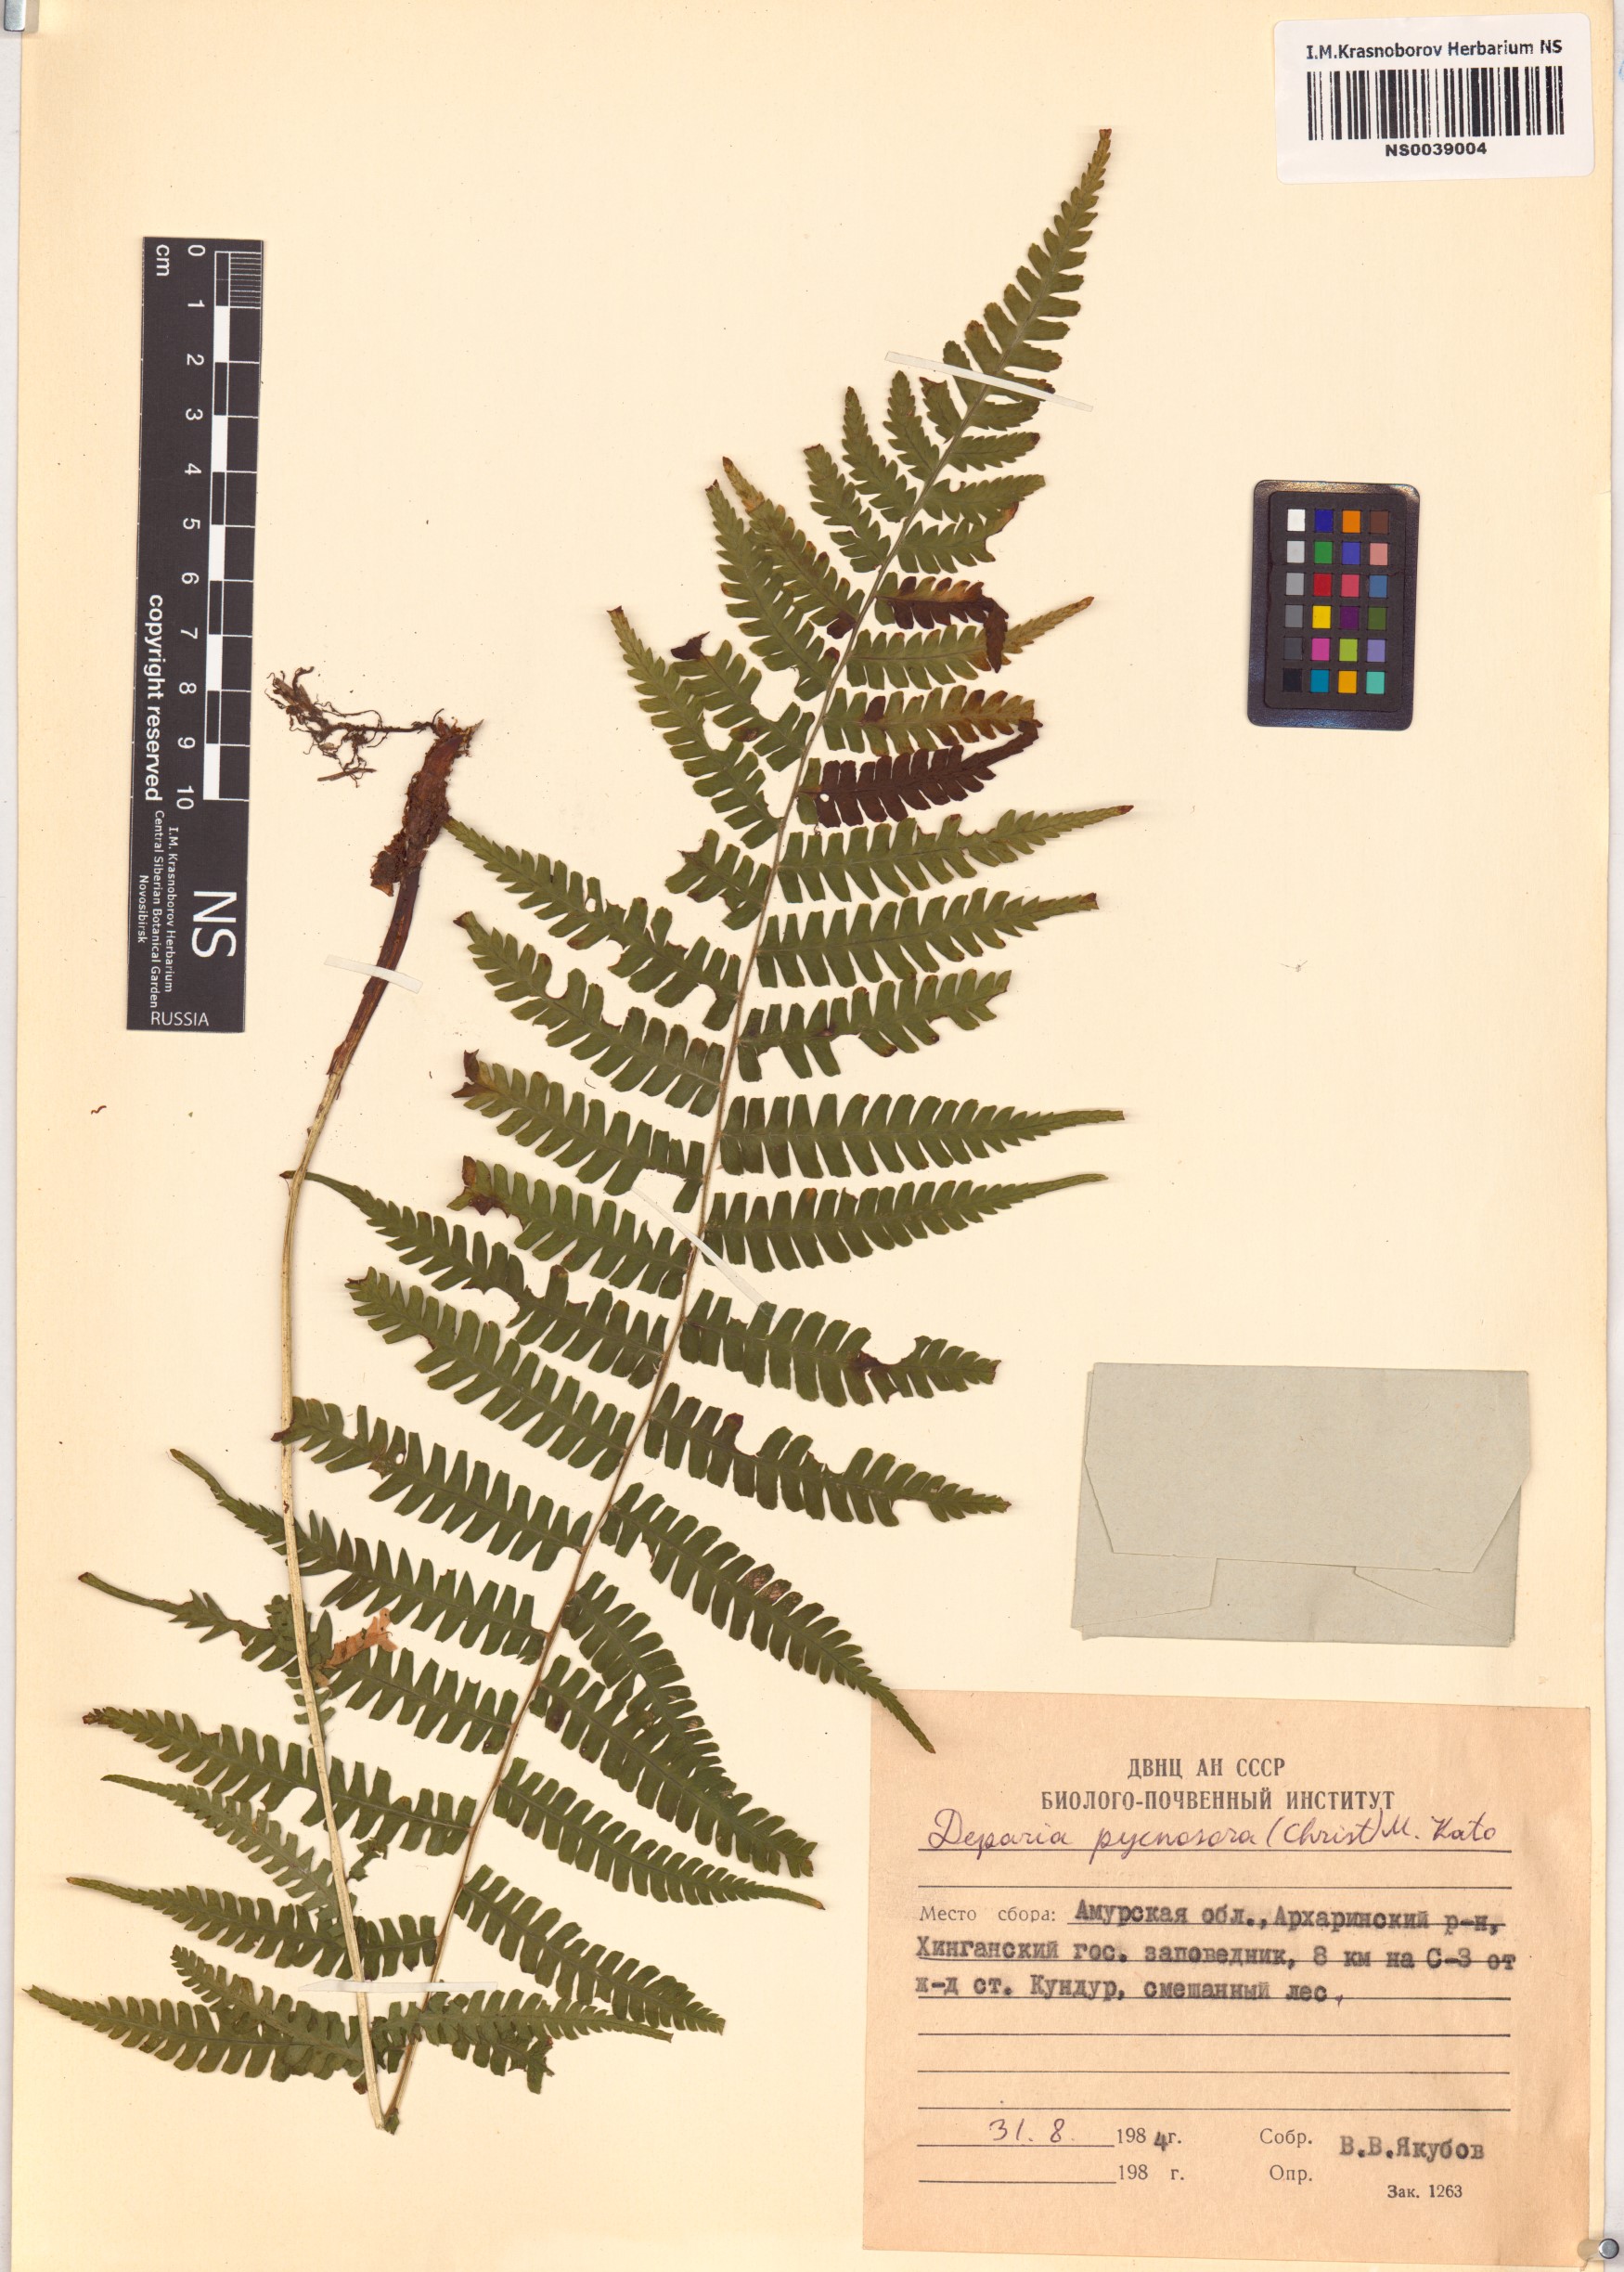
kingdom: Plantae
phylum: Tracheophyta
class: Polypodiopsida
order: Polypodiales
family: Athyriaceae
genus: Deparia
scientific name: Deparia pycnosora
